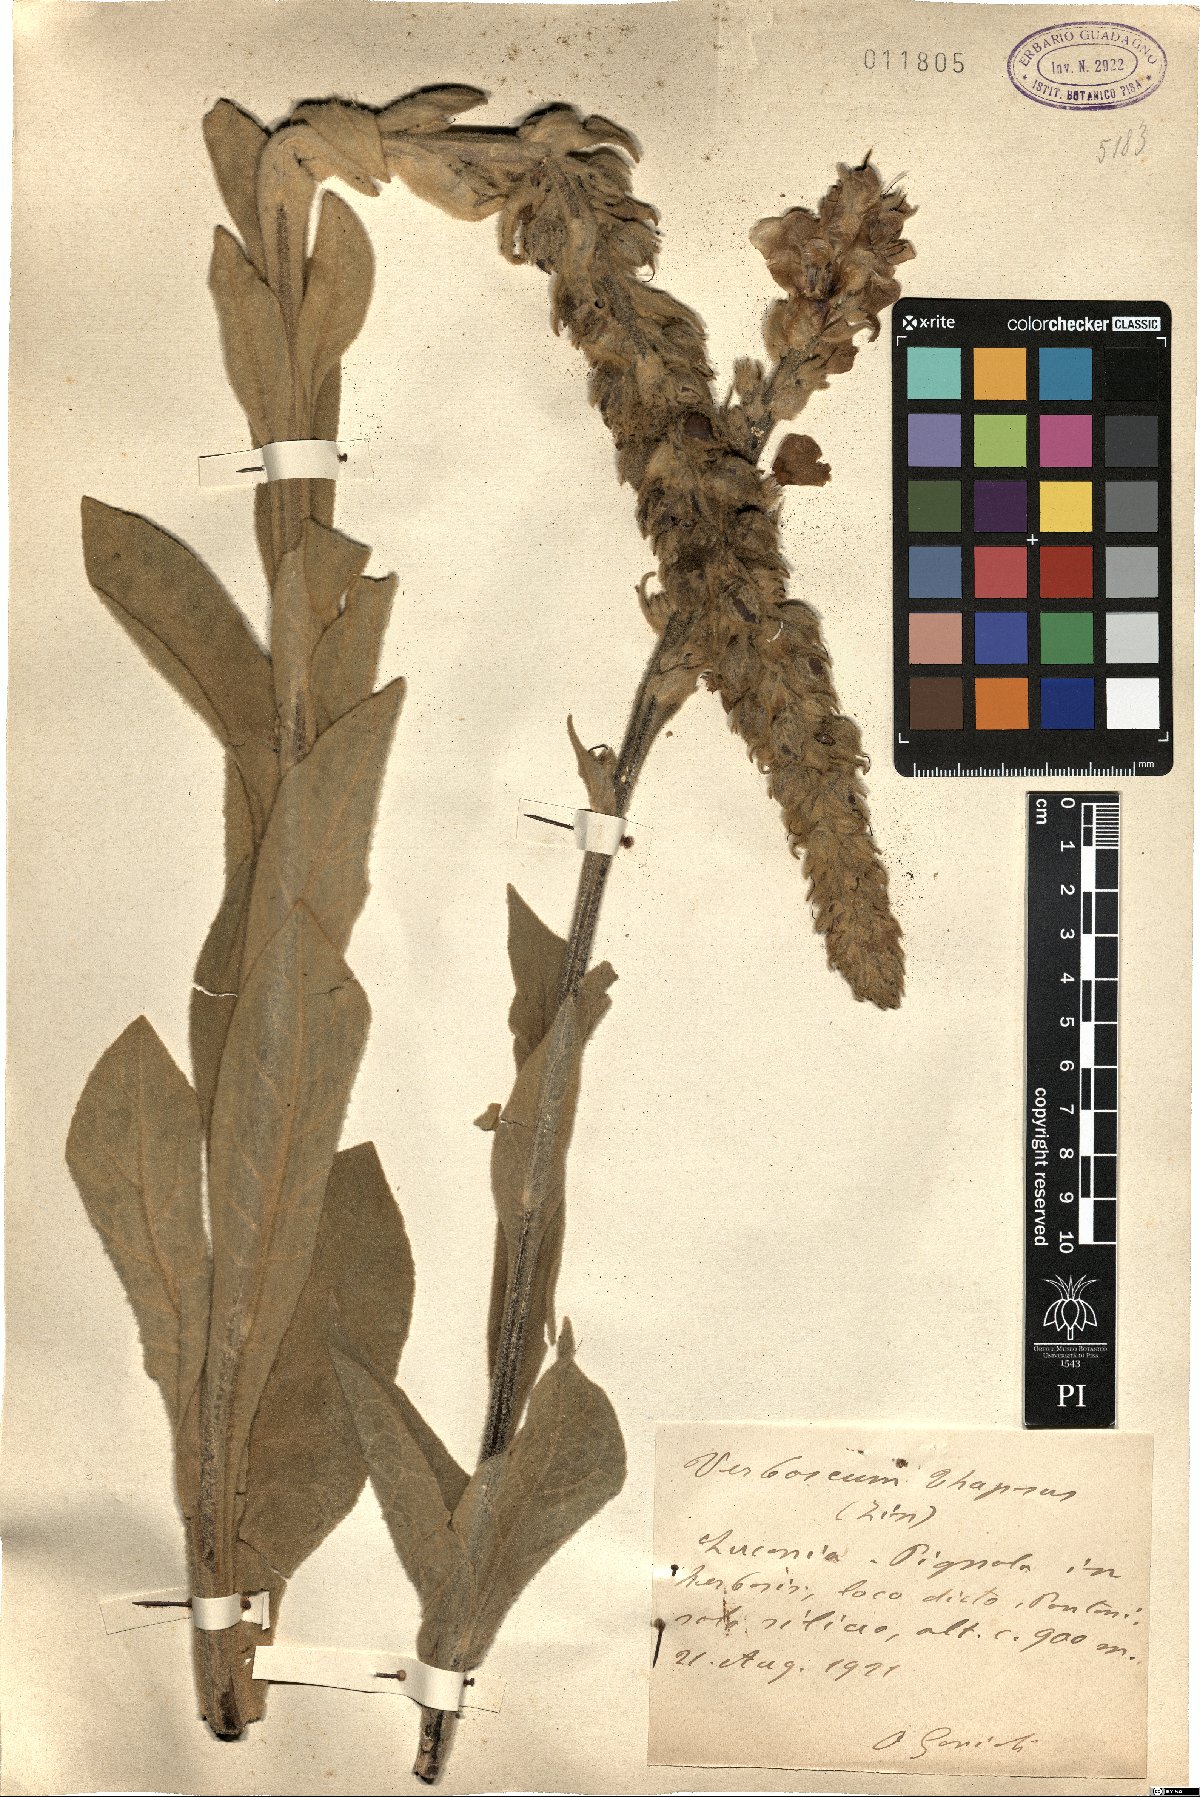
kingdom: Plantae
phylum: Tracheophyta
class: Magnoliopsida
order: Lamiales
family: Scrophulariaceae
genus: Verbascum
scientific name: Verbascum thapsus
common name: Common mullein
